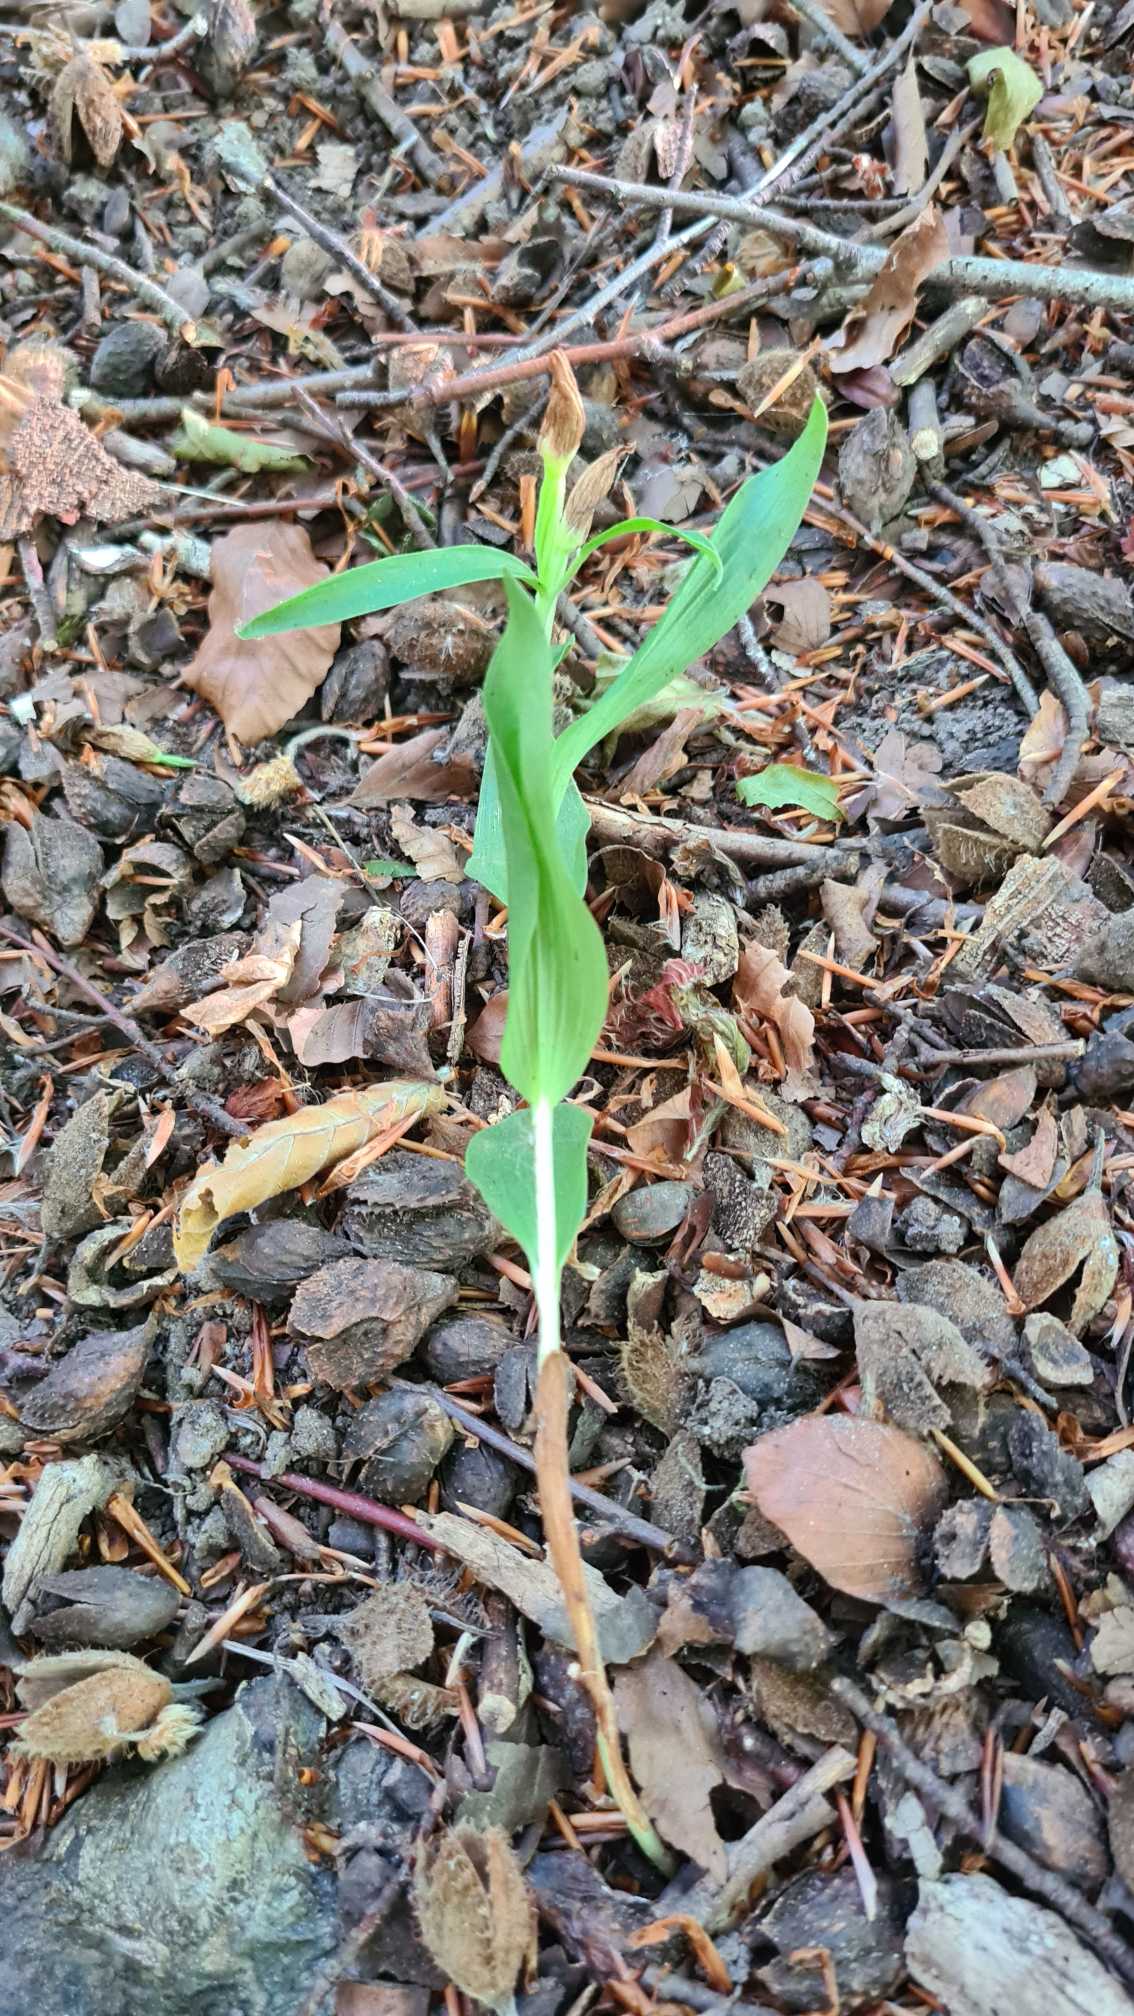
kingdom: Plantae
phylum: Tracheophyta
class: Liliopsida
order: Asparagales
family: Orchidaceae
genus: Cephalanthera
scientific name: Cephalanthera damasonium
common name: Hvidgul skovlilje
